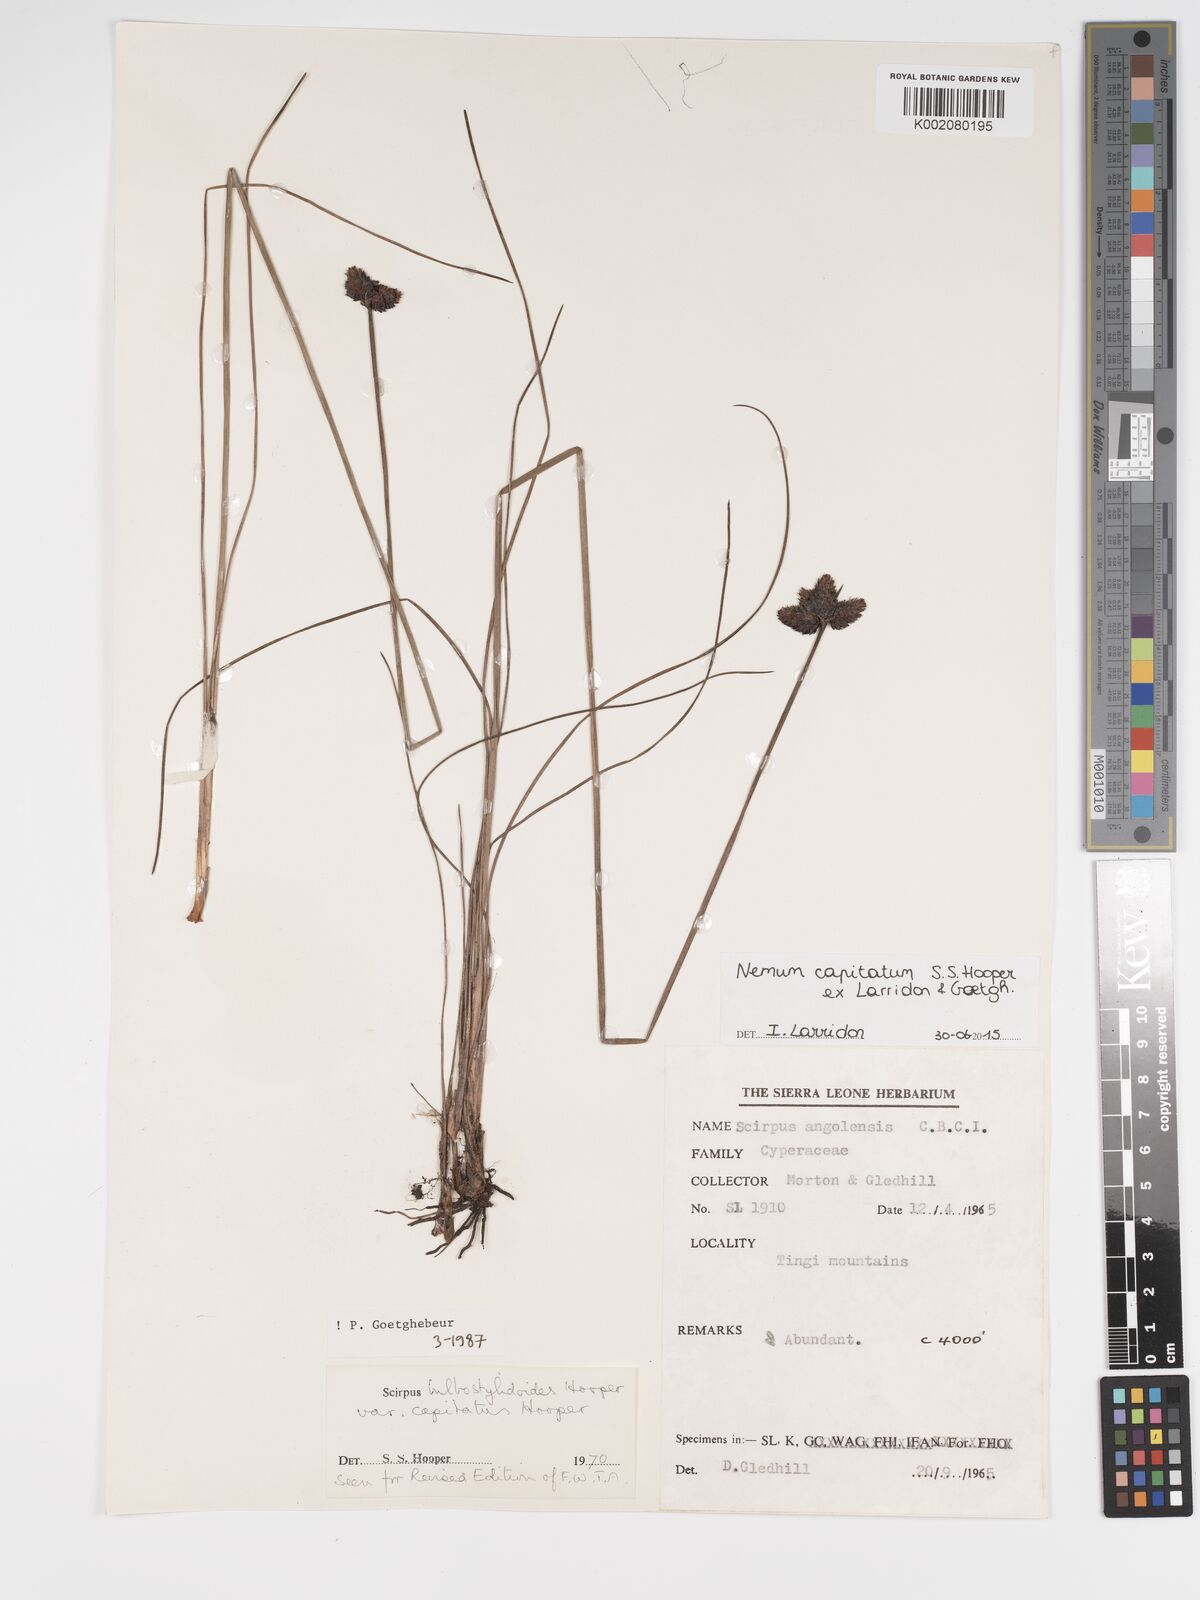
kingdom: Plantae
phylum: Tracheophyta
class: Liliopsida
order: Poales
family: Cyperaceae
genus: Bulbostylis
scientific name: Bulbostylis neocapitata
